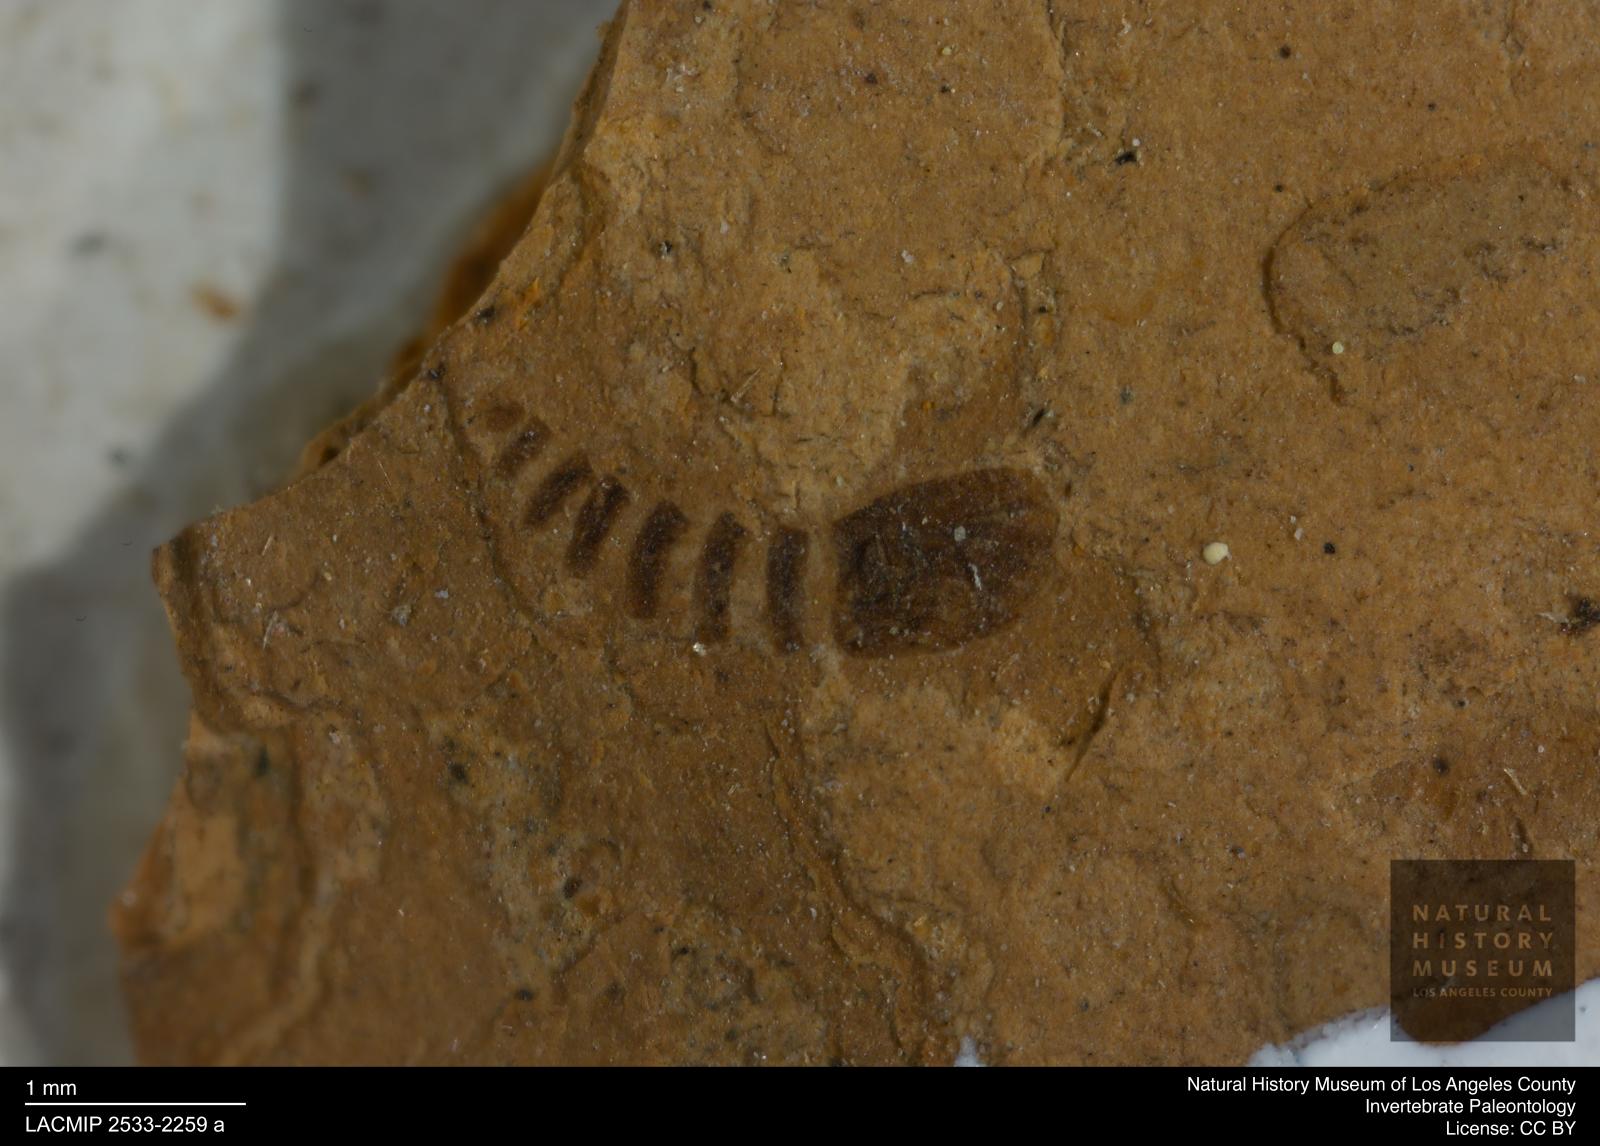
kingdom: Animalia
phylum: Arthropoda
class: Insecta
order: Diptera
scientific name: Diptera
